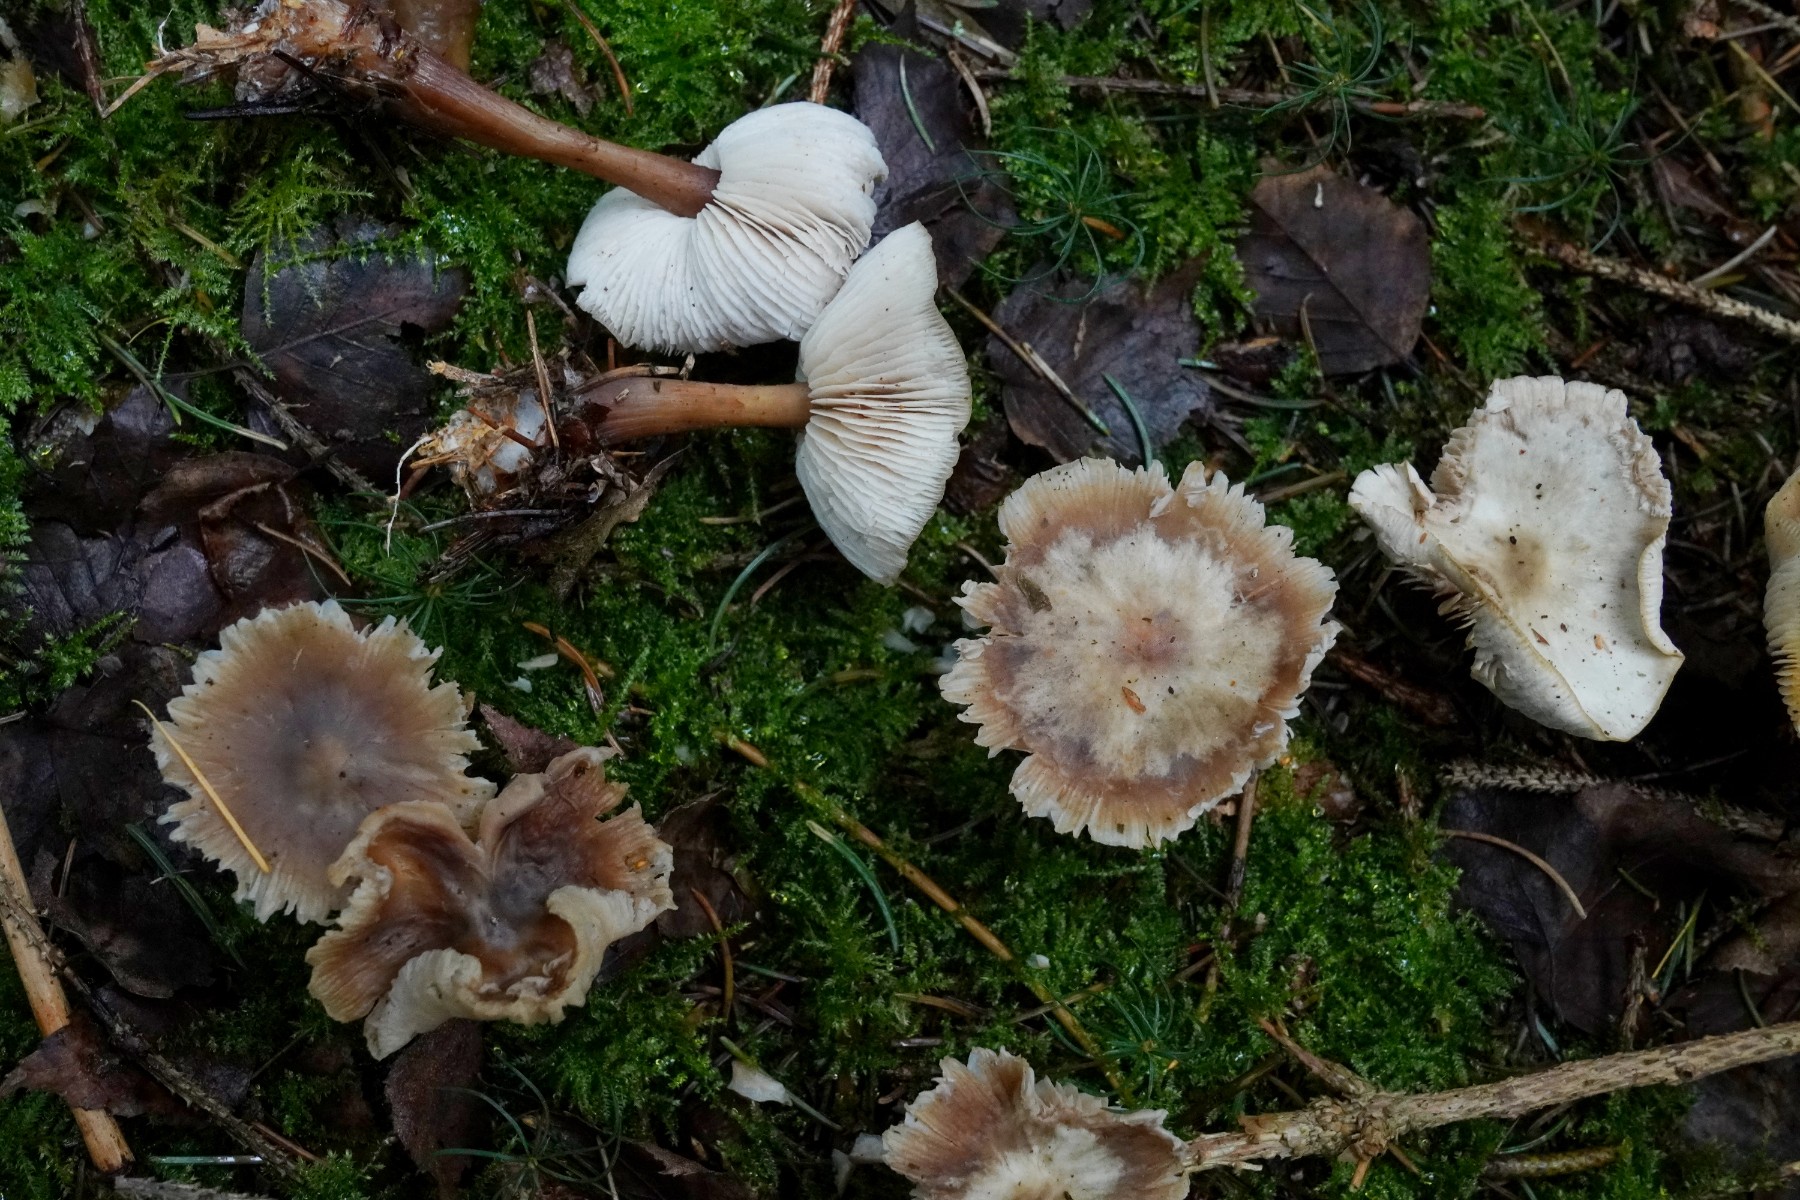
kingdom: Fungi
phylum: Basidiomycota
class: Agaricomycetes
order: Agaricales
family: Omphalotaceae
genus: Rhodocollybia
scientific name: Rhodocollybia asema
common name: horngrå fladhat
